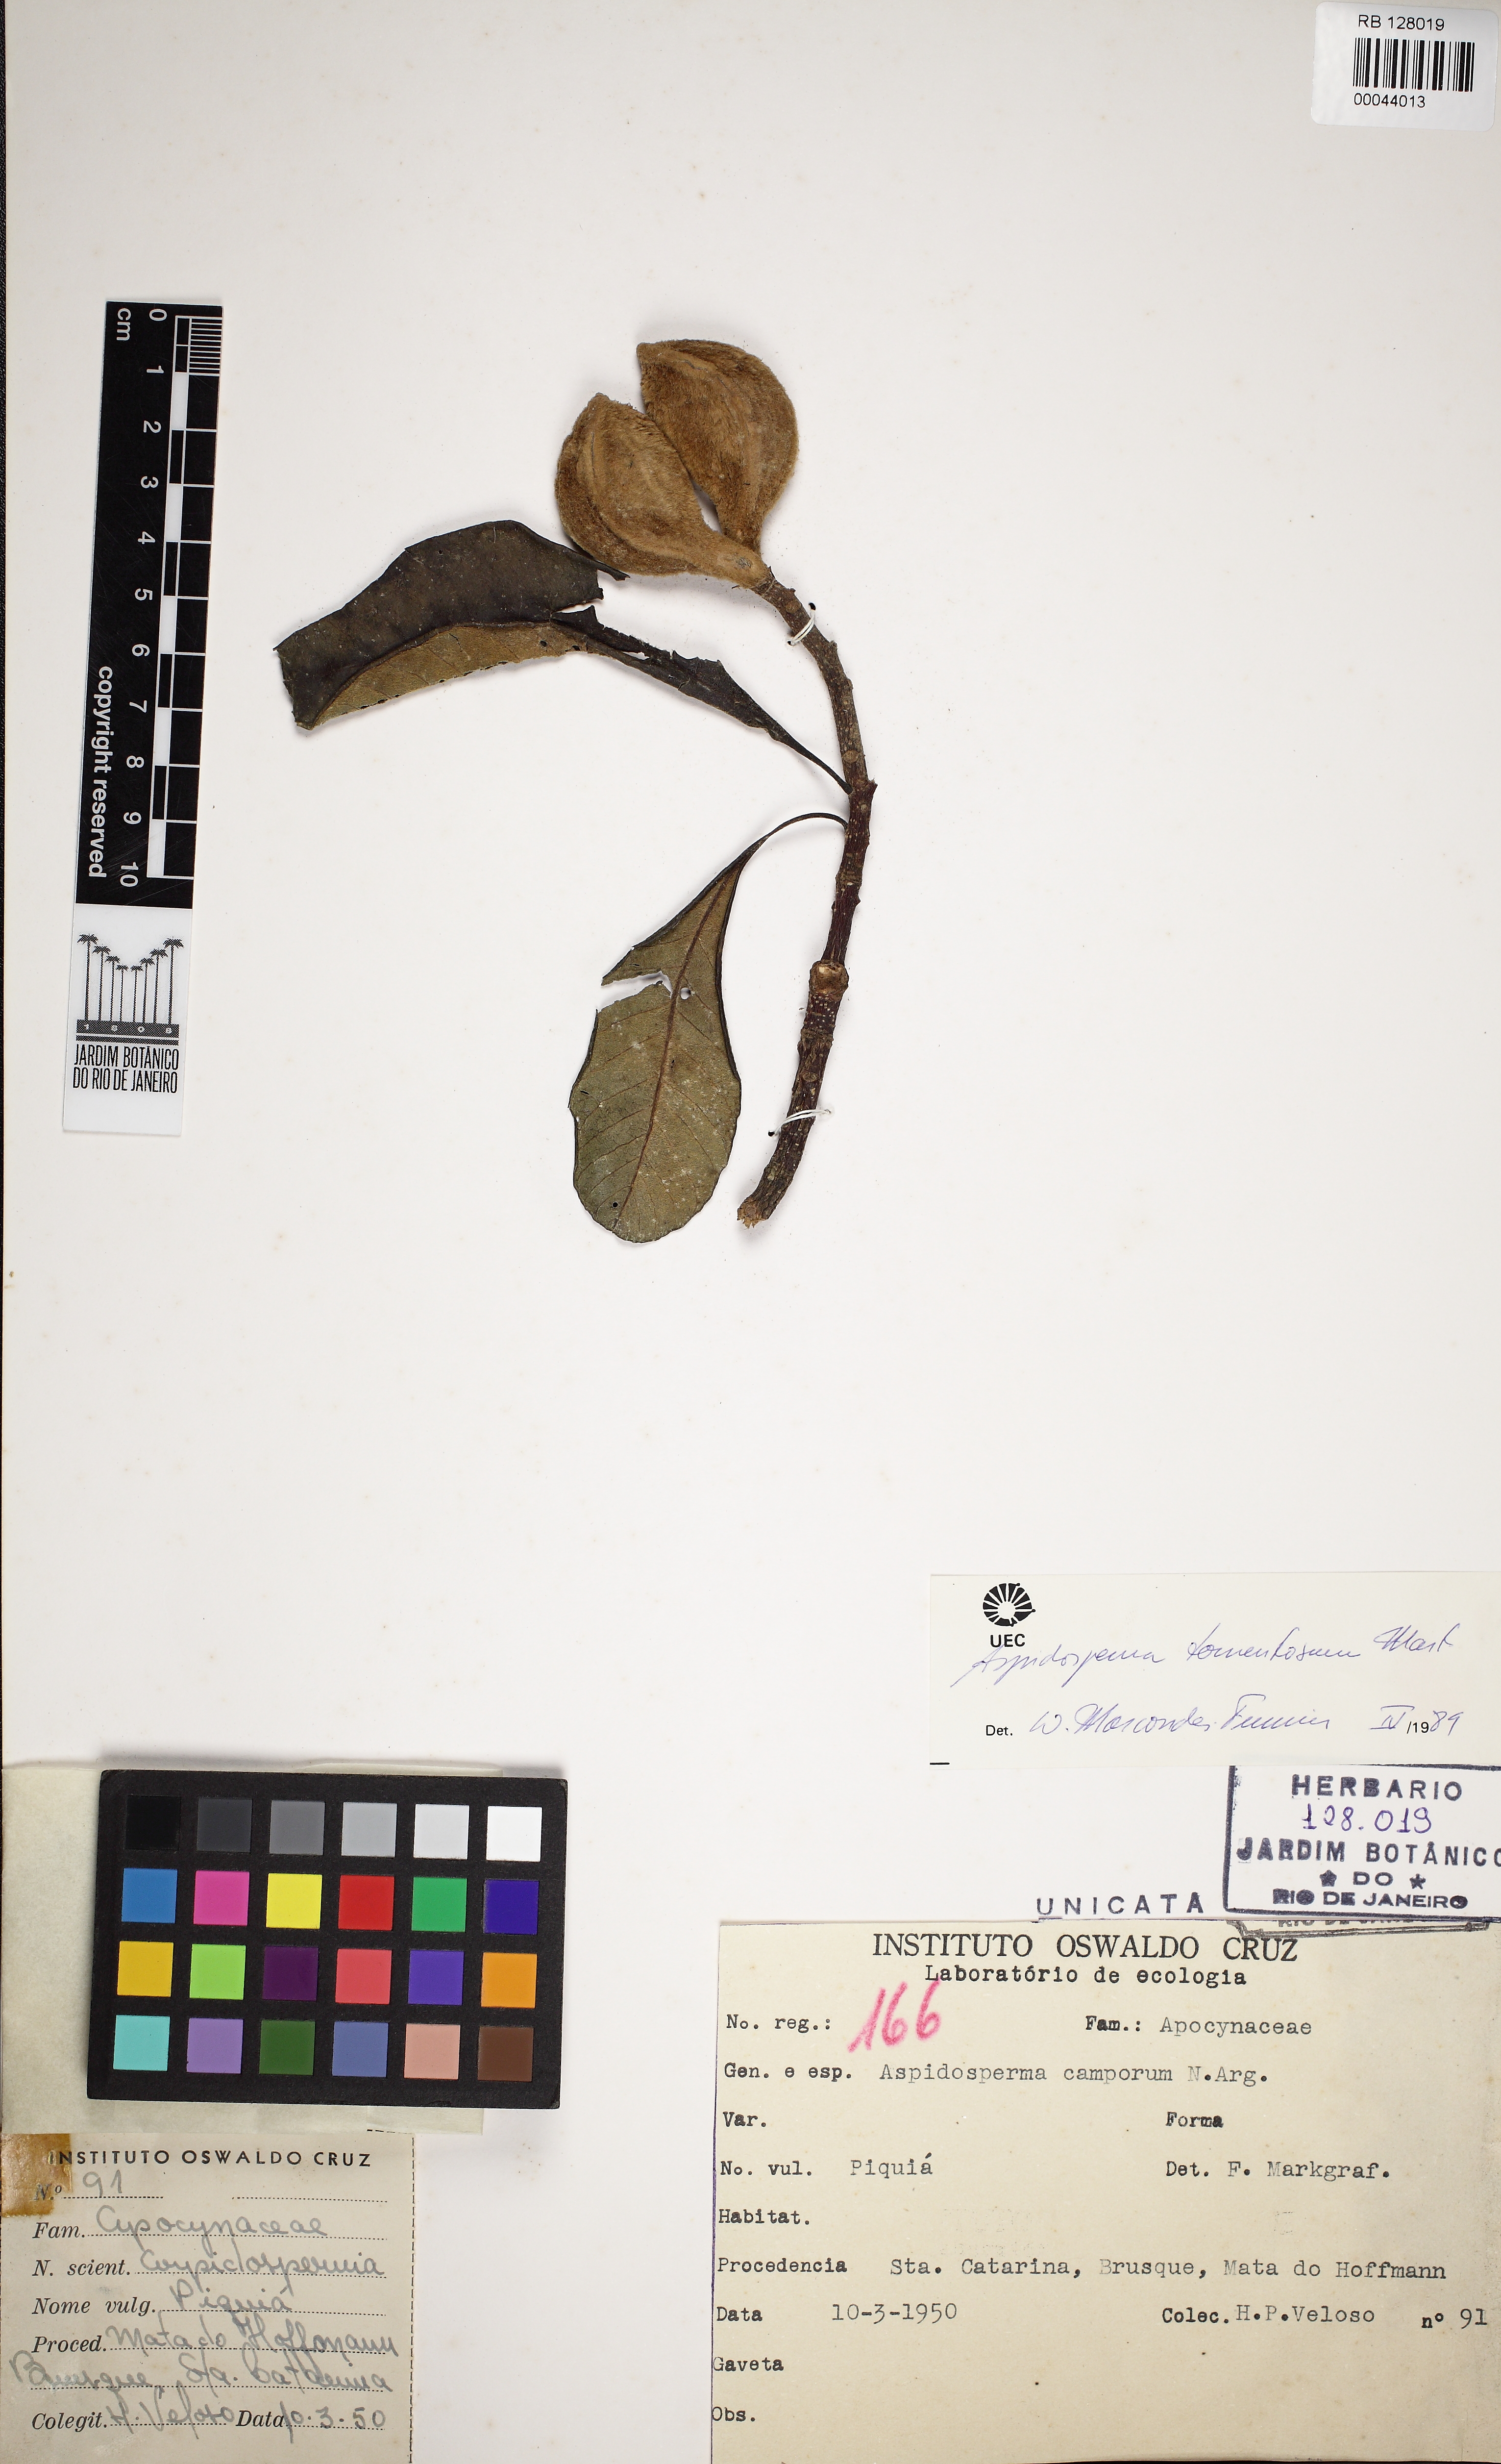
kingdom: Plantae
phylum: Tracheophyta
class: Magnoliopsida
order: Gentianales
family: Apocynaceae
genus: Aspidosperma
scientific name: Aspidosperma camporum
